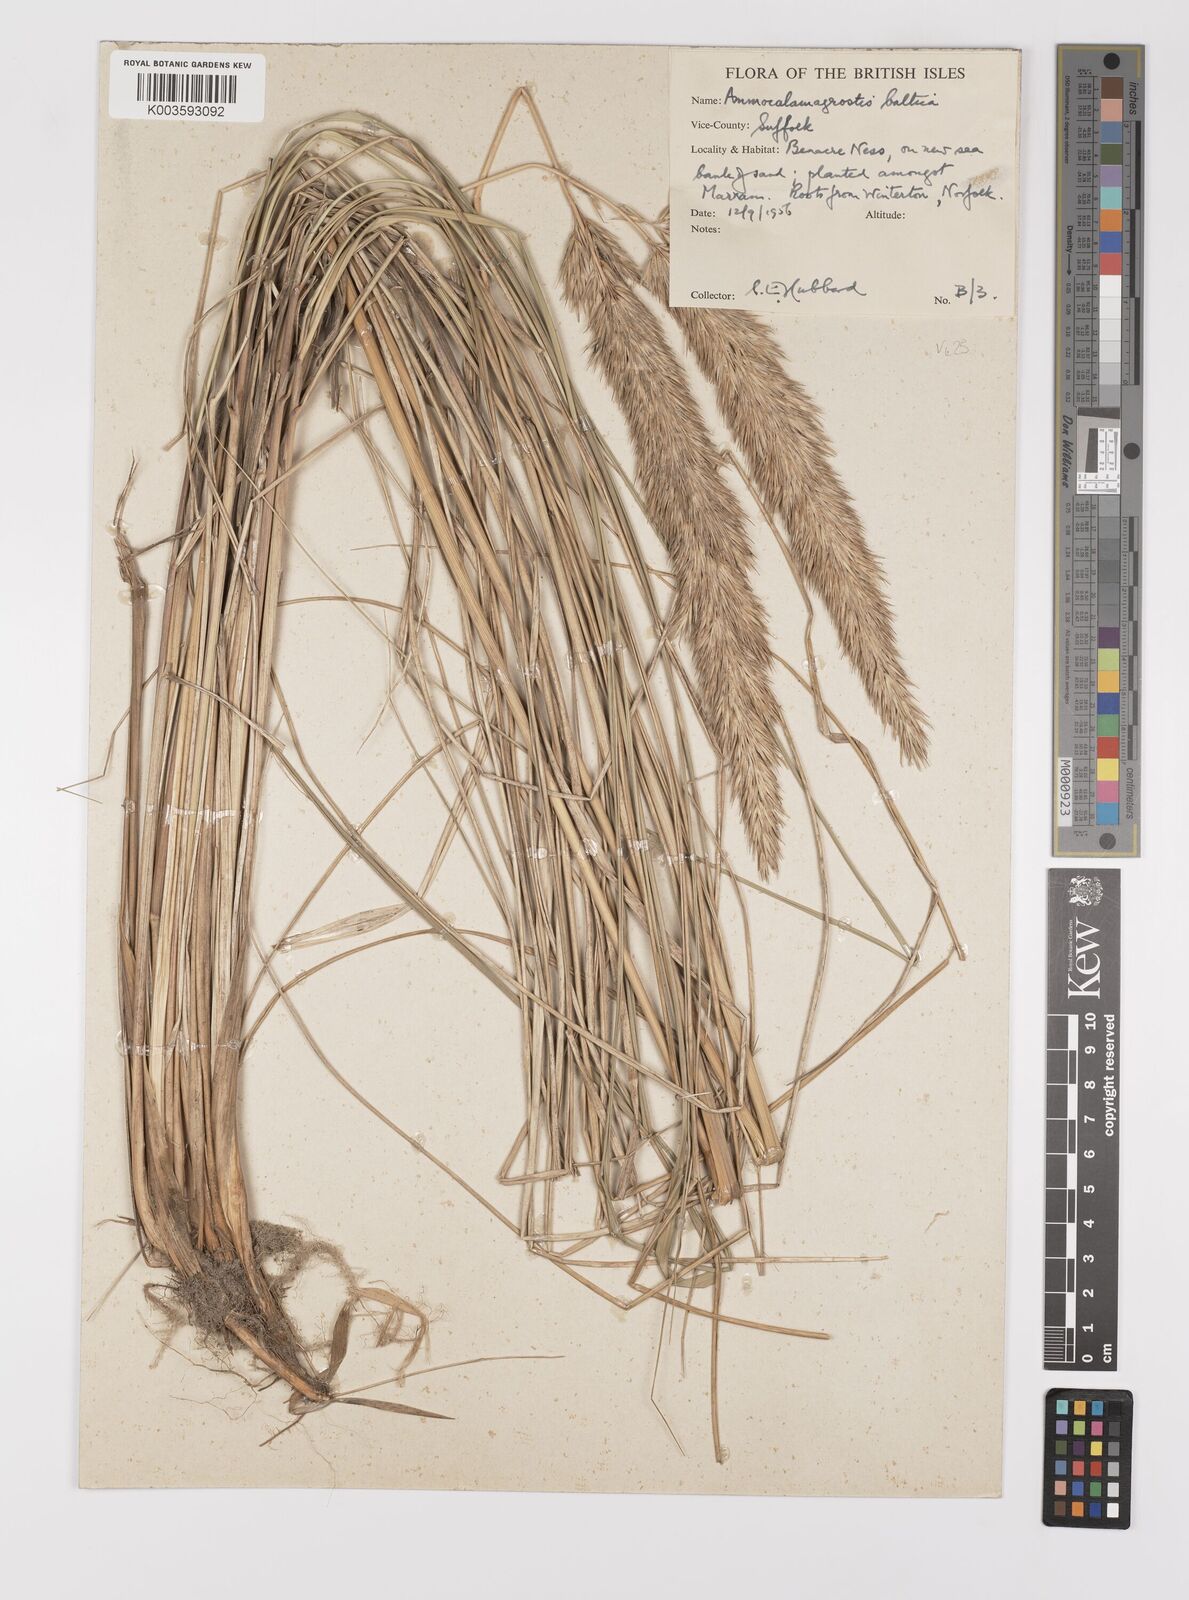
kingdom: Plantae
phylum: Tracheophyta
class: Liliopsida
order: Poales
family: Poaceae
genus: Calamagrostis
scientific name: Calamagrostis baltica
